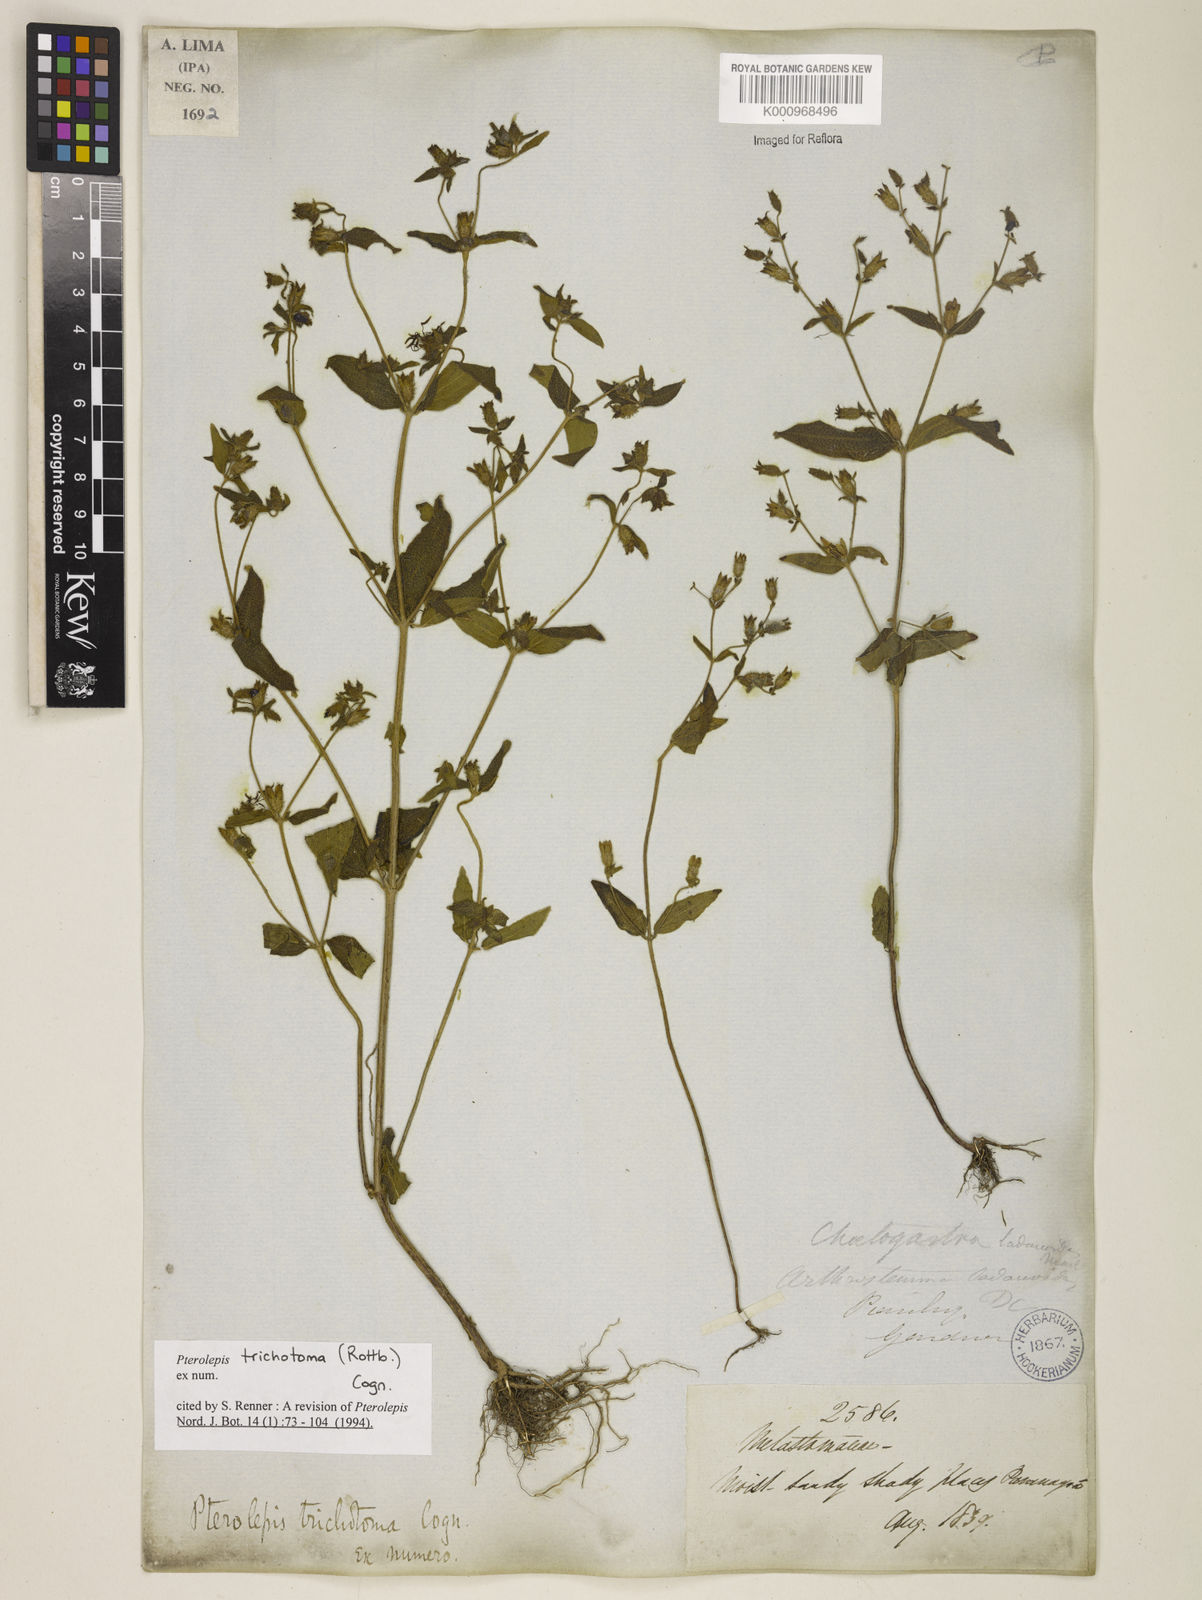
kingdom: Plantae
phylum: Tracheophyta
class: Magnoliopsida
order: Myrtales
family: Melastomataceae
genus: Pterolepis
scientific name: Pterolepis trichotoma
